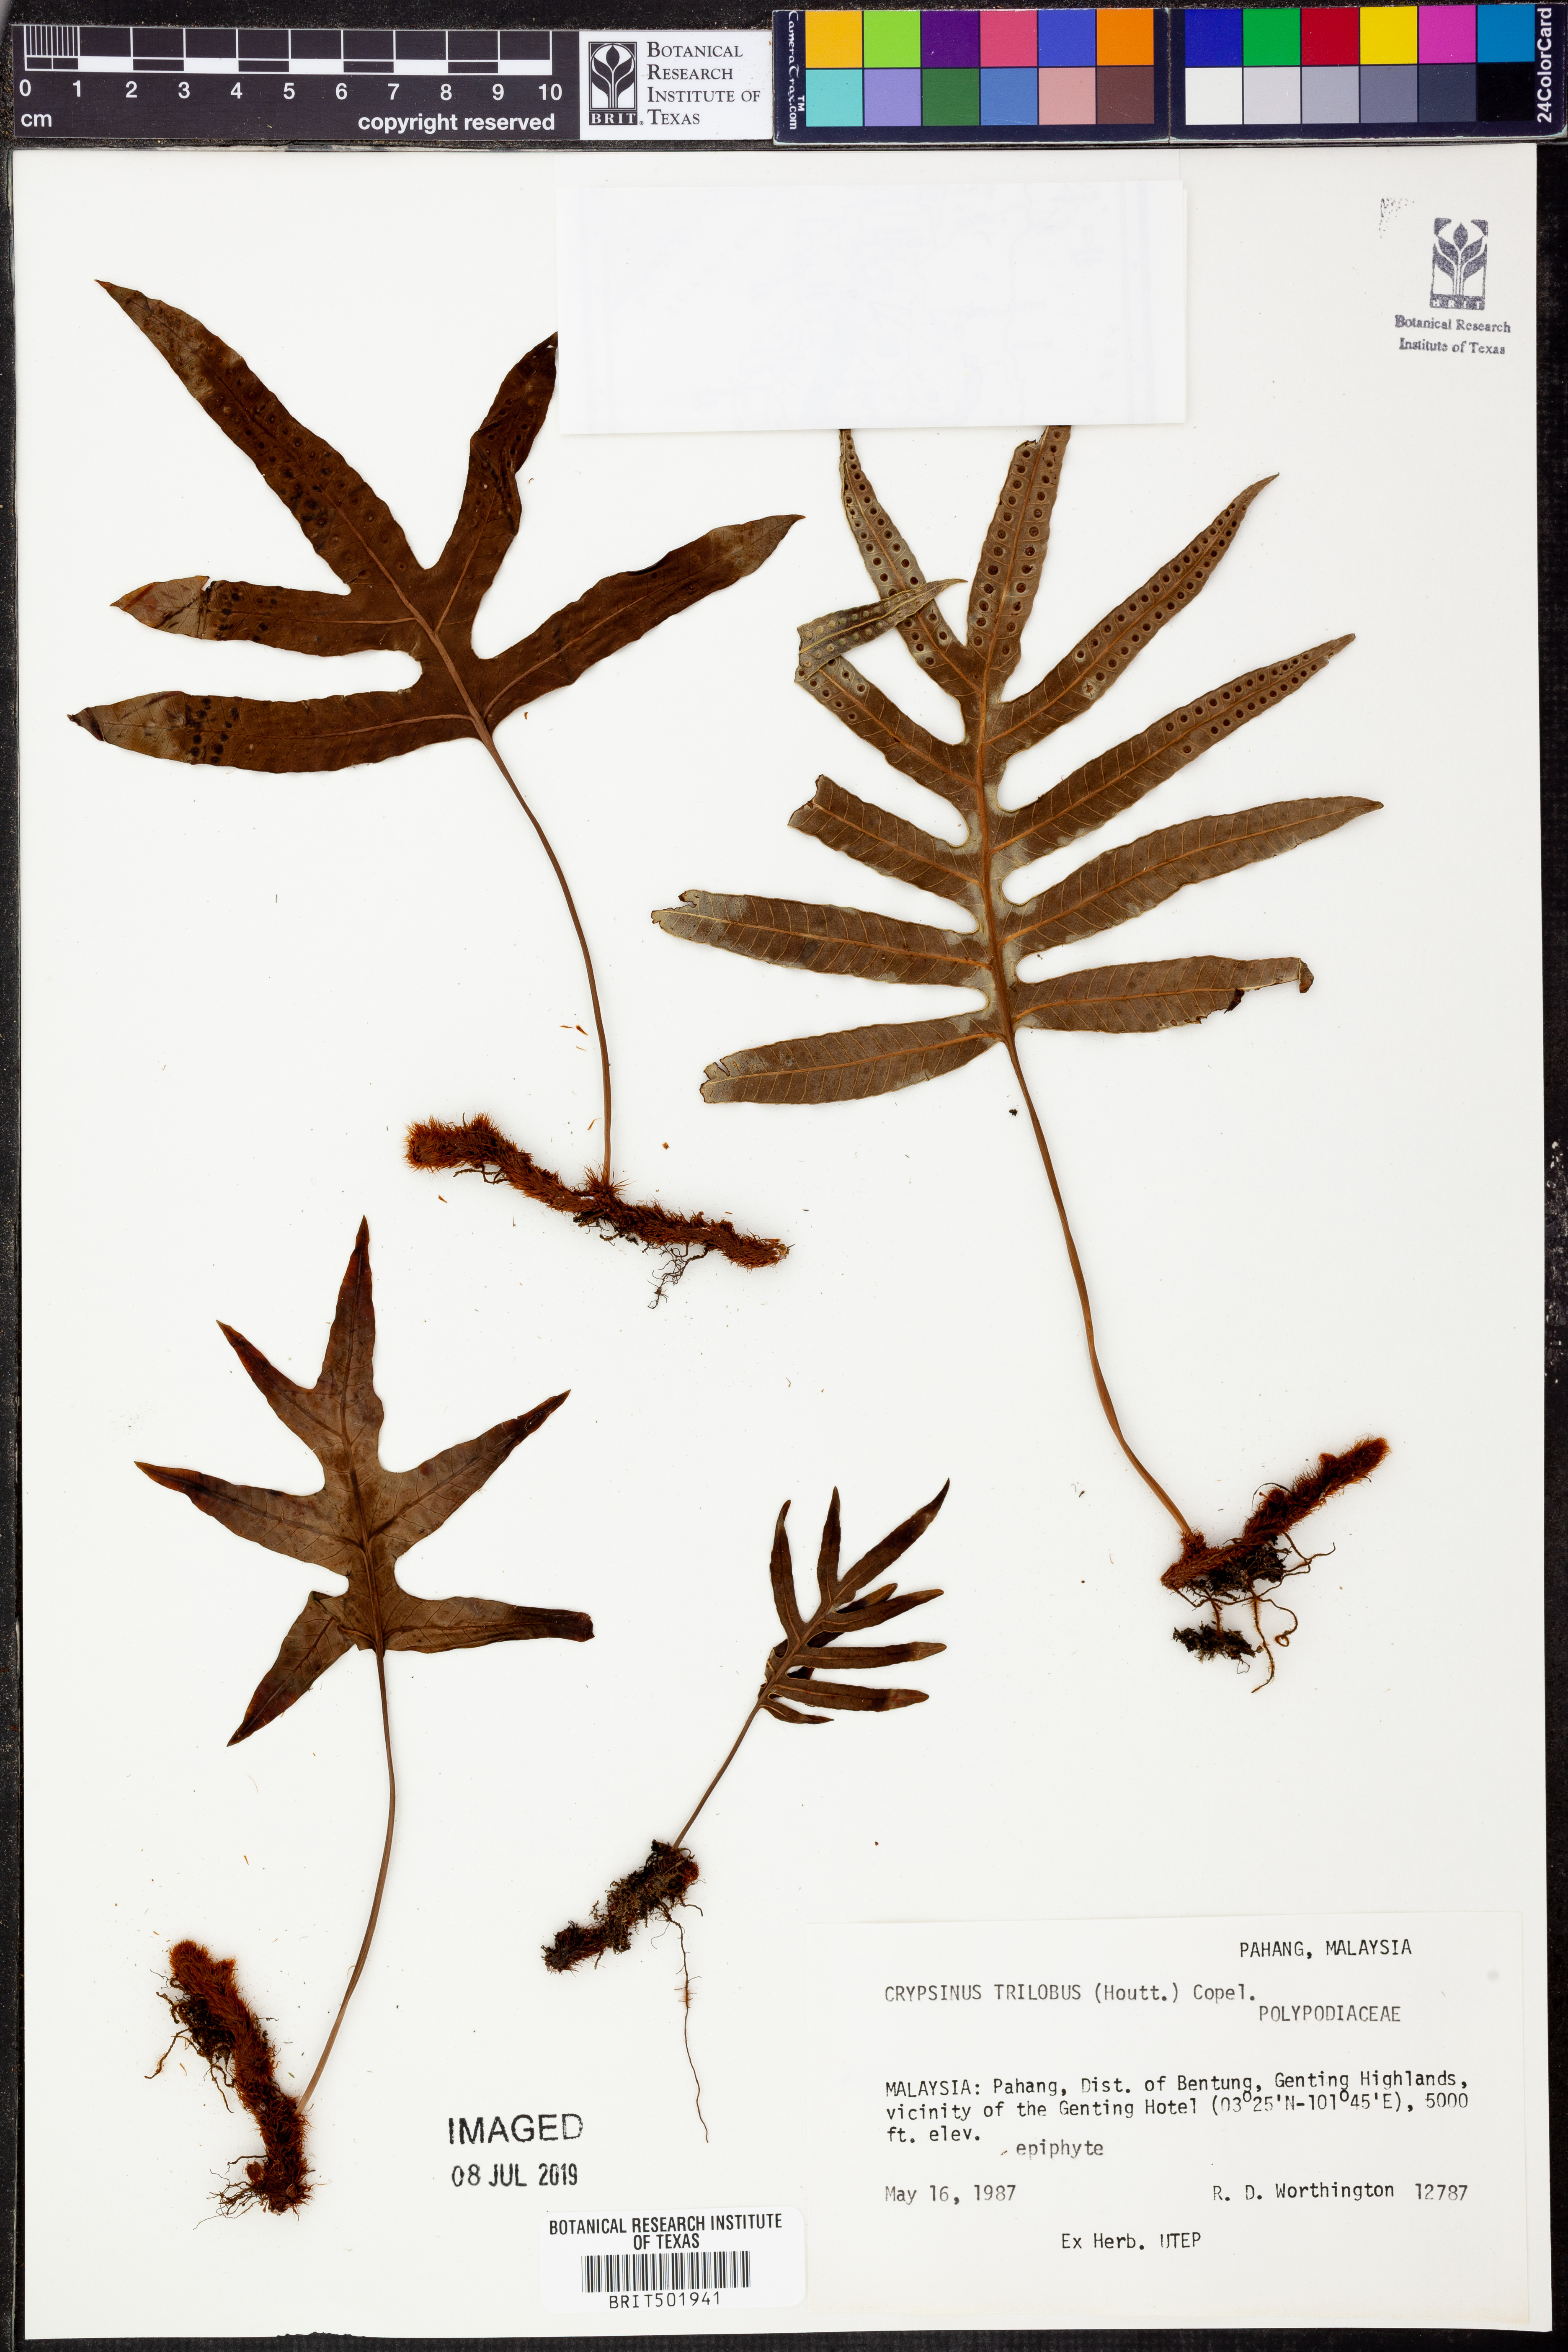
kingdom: Plantae
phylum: Tracheophyta
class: Polypodiopsida
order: Polypodiales
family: Polypodiaceae
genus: Selliguea
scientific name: Selliguea triloba
